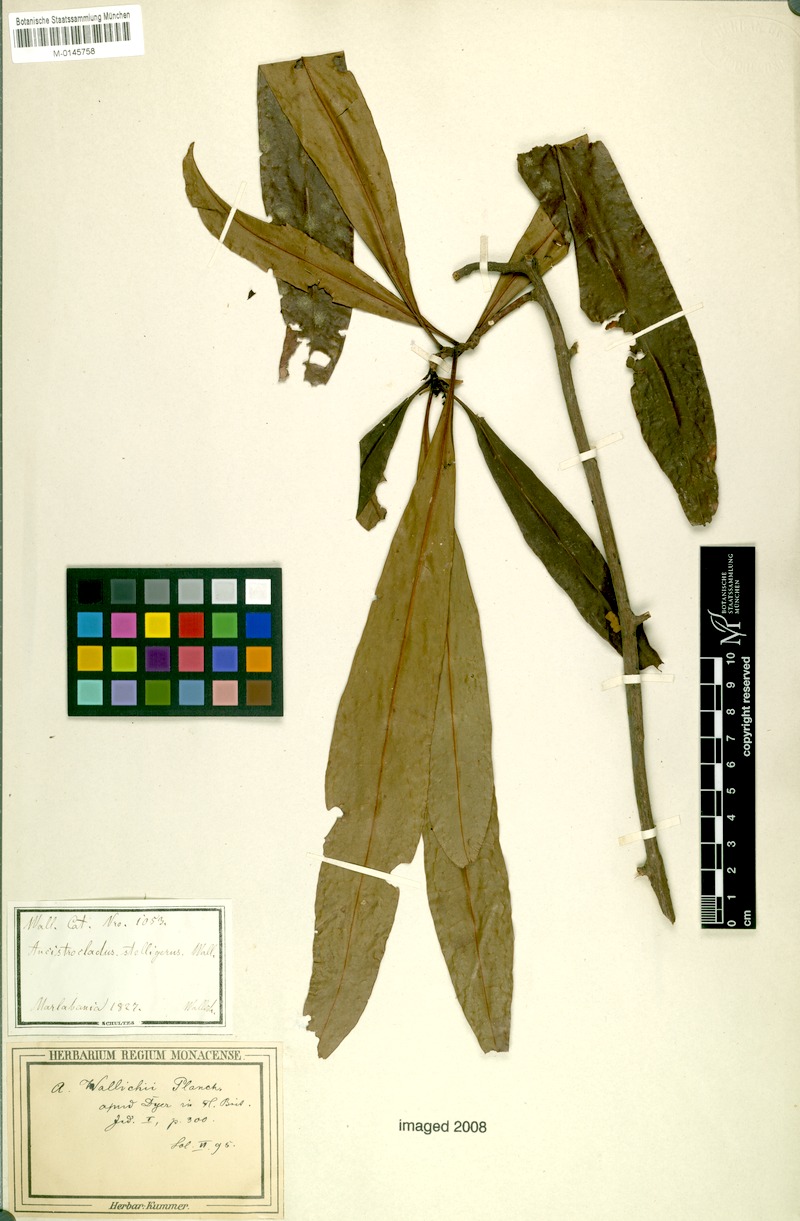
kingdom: Plantae
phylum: Tracheophyta
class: Magnoliopsida
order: Caryophyllales
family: Ancistrocladaceae
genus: Ancistrocladus
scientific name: Ancistrocladus tectorius
